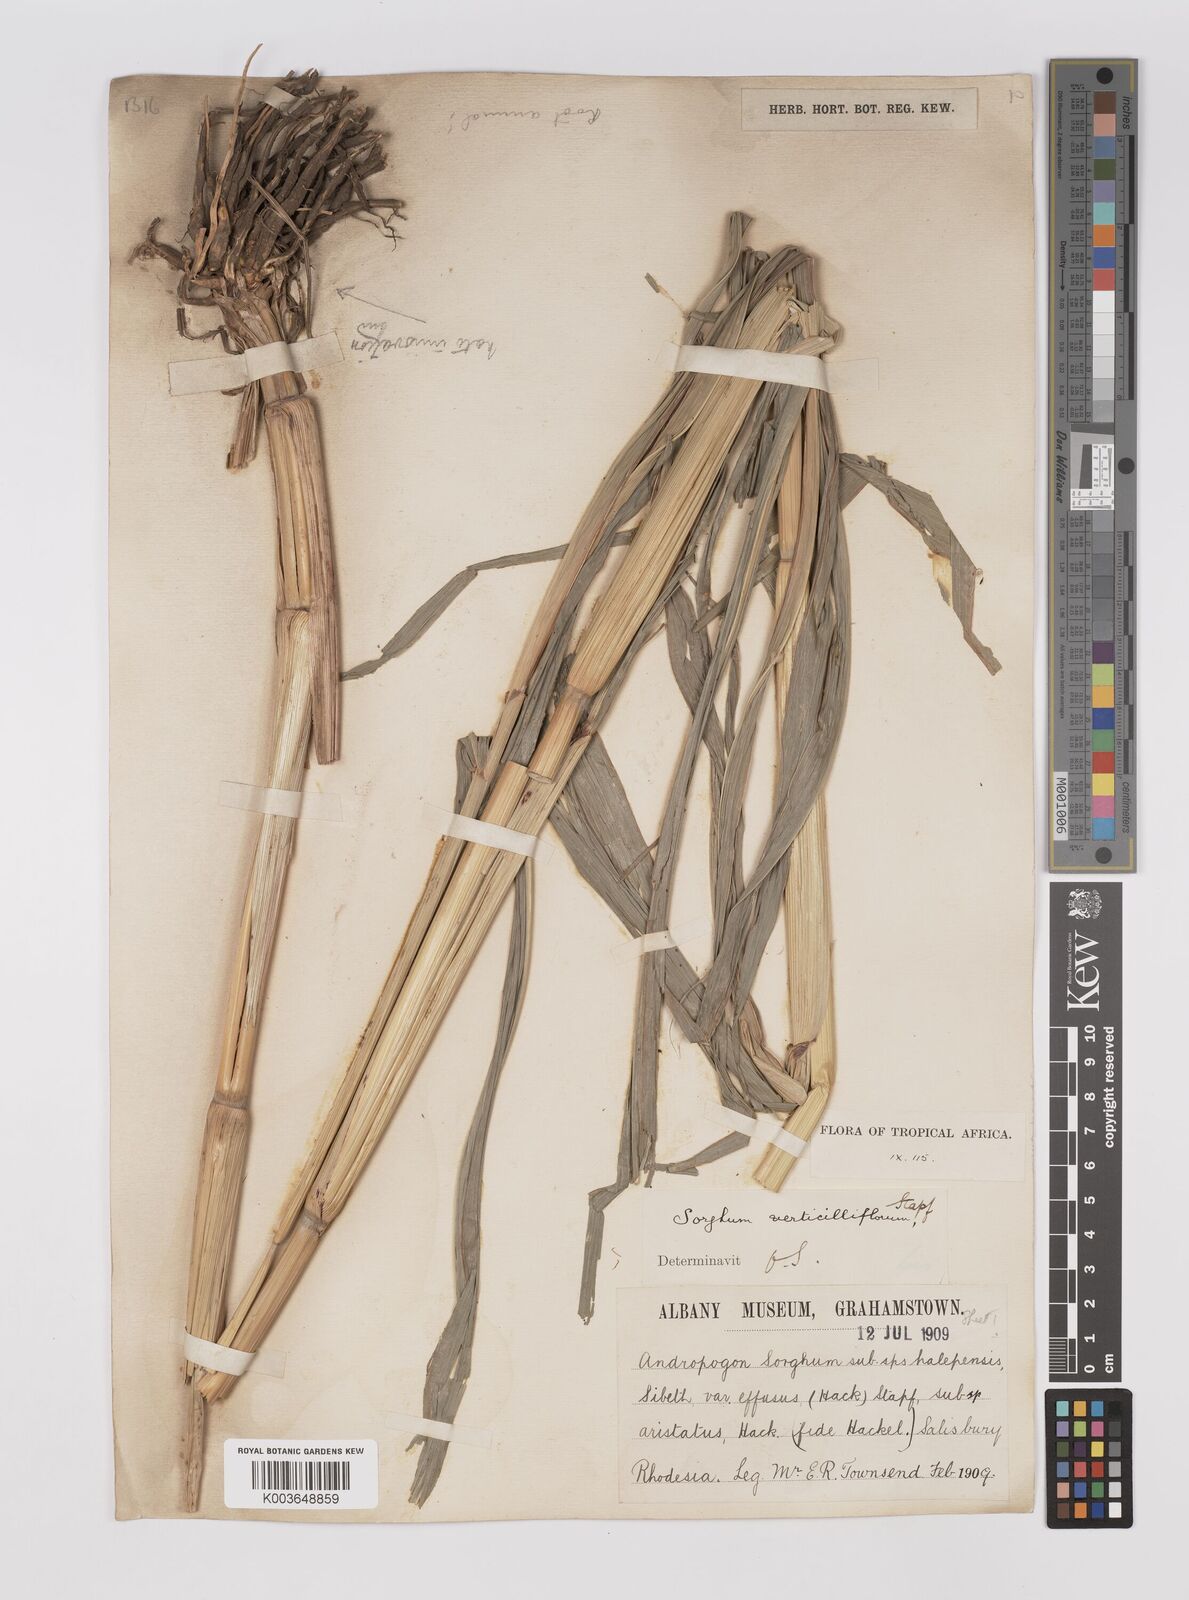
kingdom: Plantae
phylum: Tracheophyta
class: Liliopsida
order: Poales
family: Poaceae
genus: Sorghum
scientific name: Sorghum arundinaceum
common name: Sorghum
